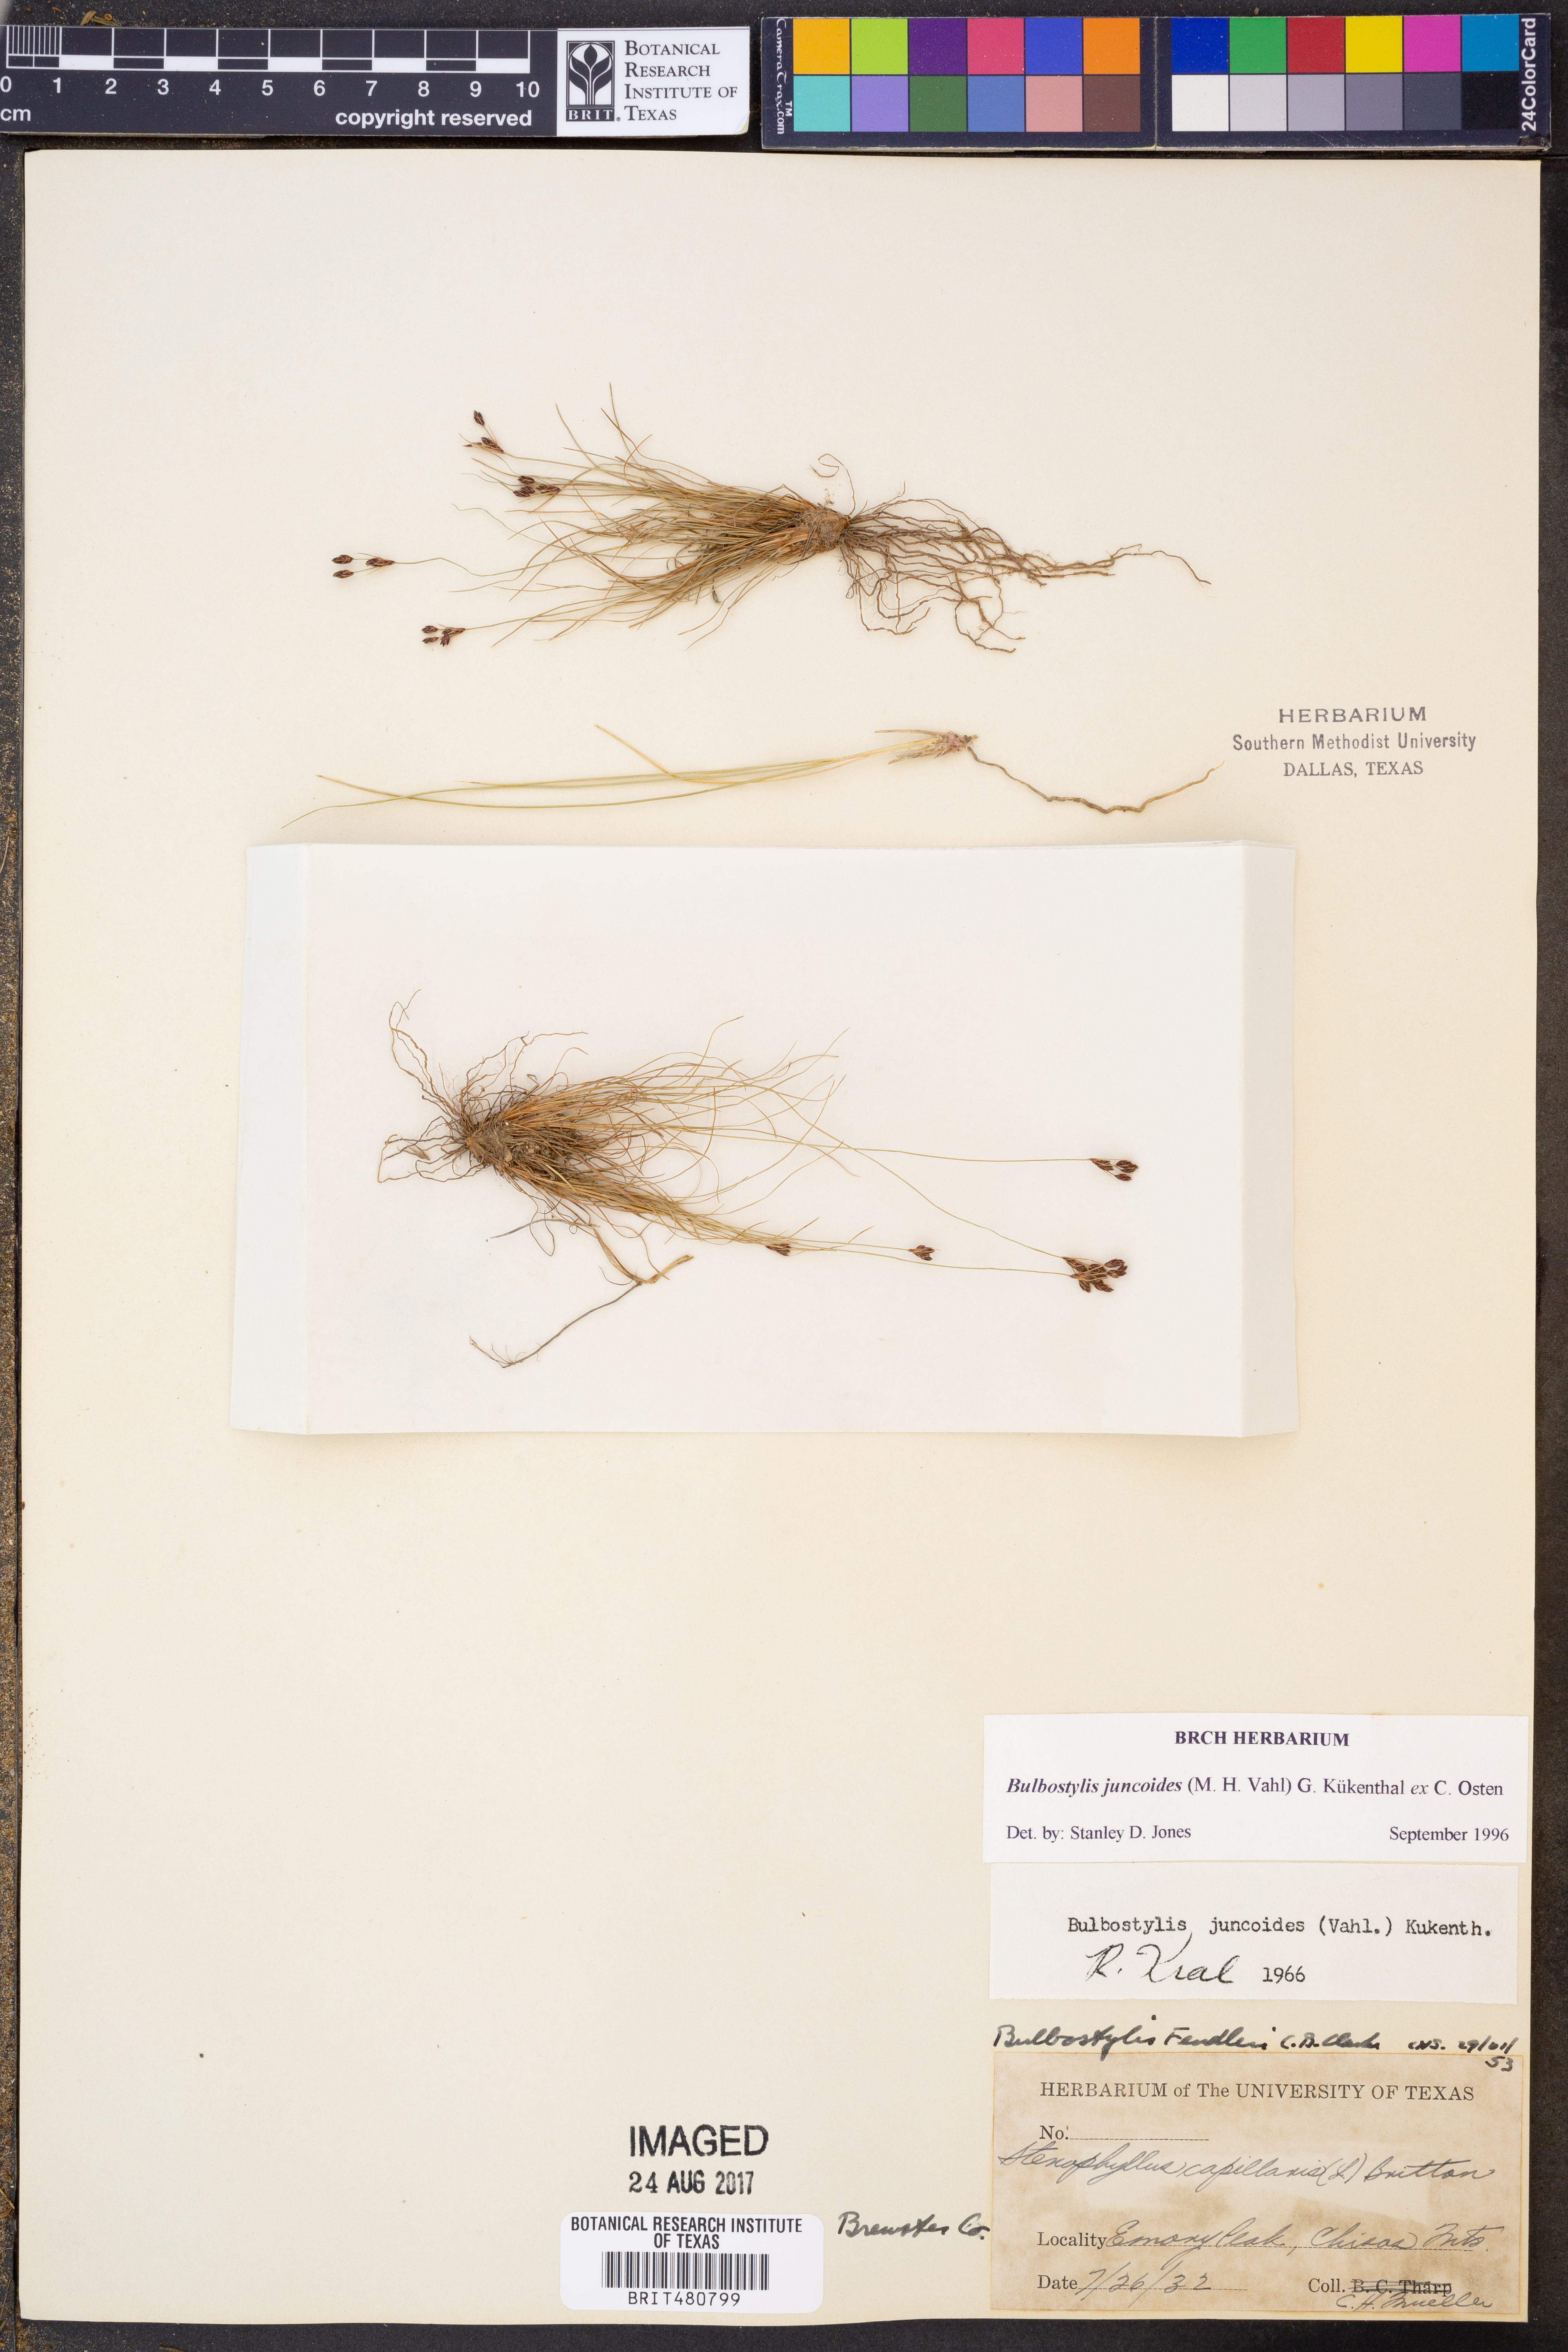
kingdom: Plantae
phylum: Tracheophyta
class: Liliopsida
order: Poales
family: Cyperaceae
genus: Bulbostylis
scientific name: Bulbostylis juncoides
